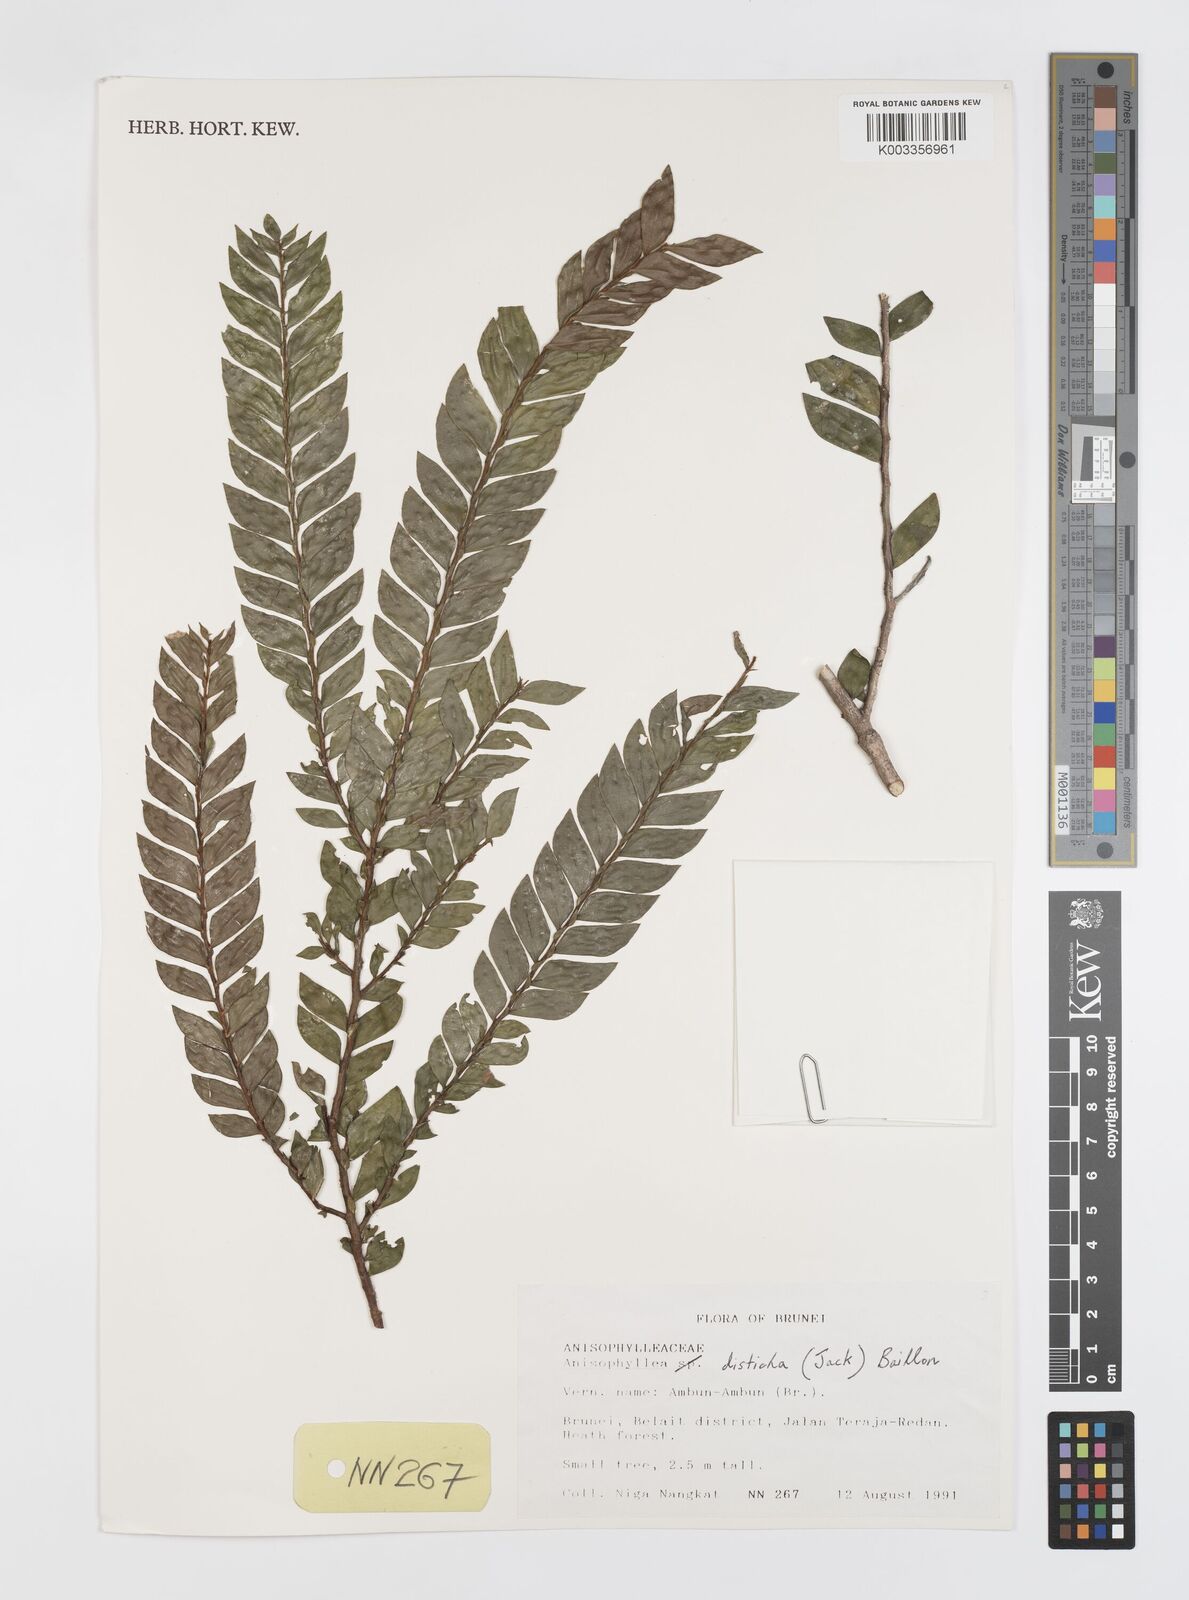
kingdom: Plantae
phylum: Tracheophyta
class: Magnoliopsida
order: Cucurbitales
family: Anisophylleaceae
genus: Anisophyllea
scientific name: Anisophyllea disticha
